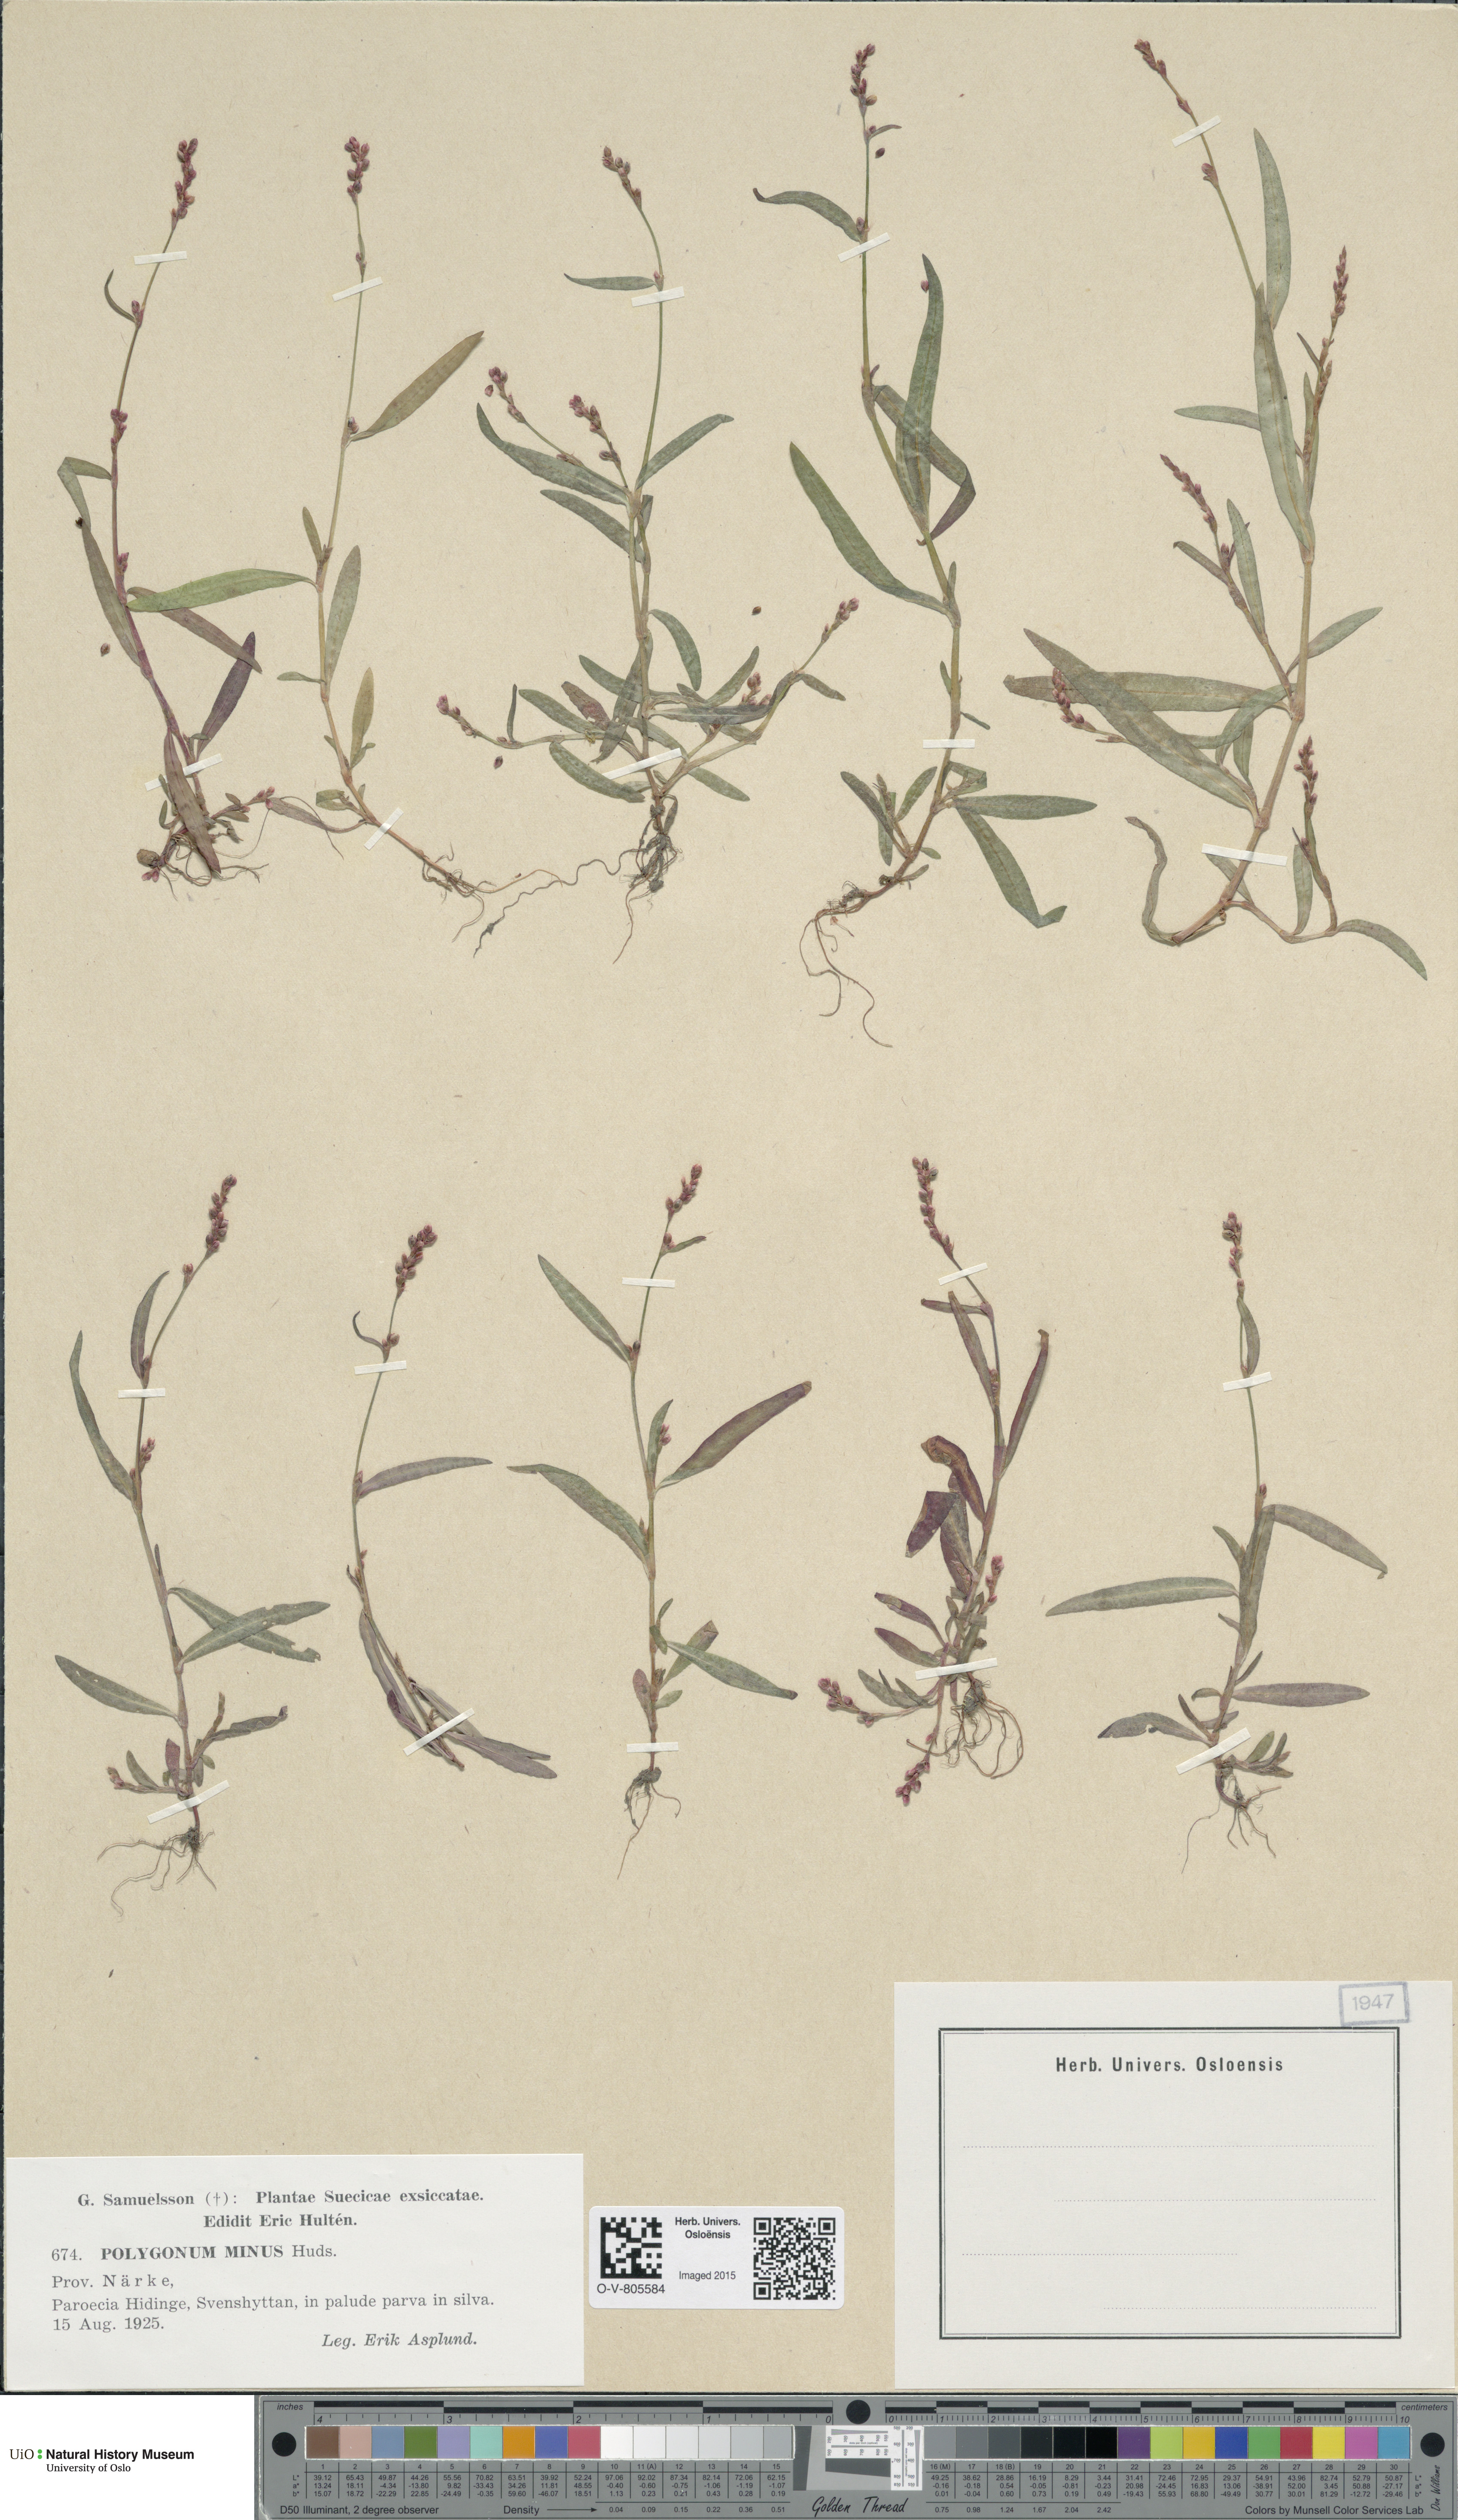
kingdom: Plantae
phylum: Tracheophyta
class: Magnoliopsida
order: Caryophyllales
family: Polygonaceae
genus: Persicaria
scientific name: Persicaria minor
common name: Small water-pepper
